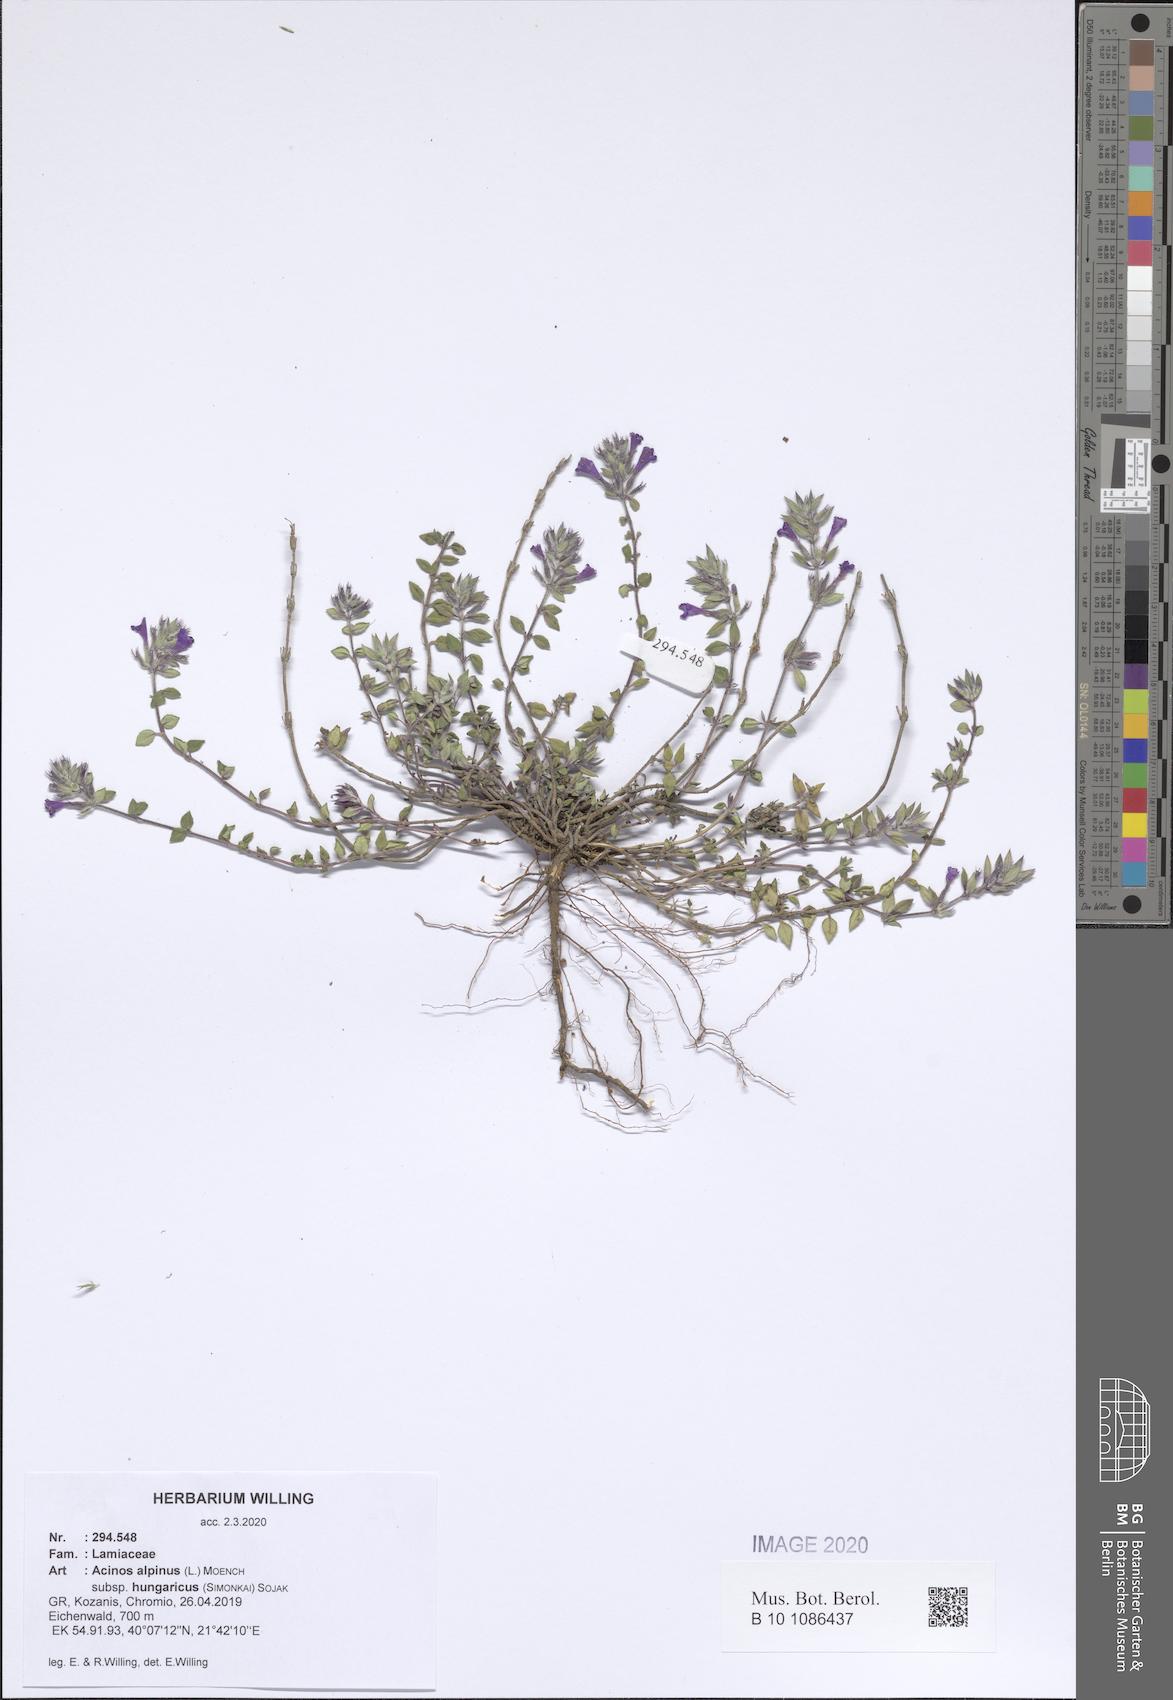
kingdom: Plantae
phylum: Tracheophyta
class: Magnoliopsida
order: Lamiales
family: Lamiaceae
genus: Clinopodium
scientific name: Clinopodium alpinum
